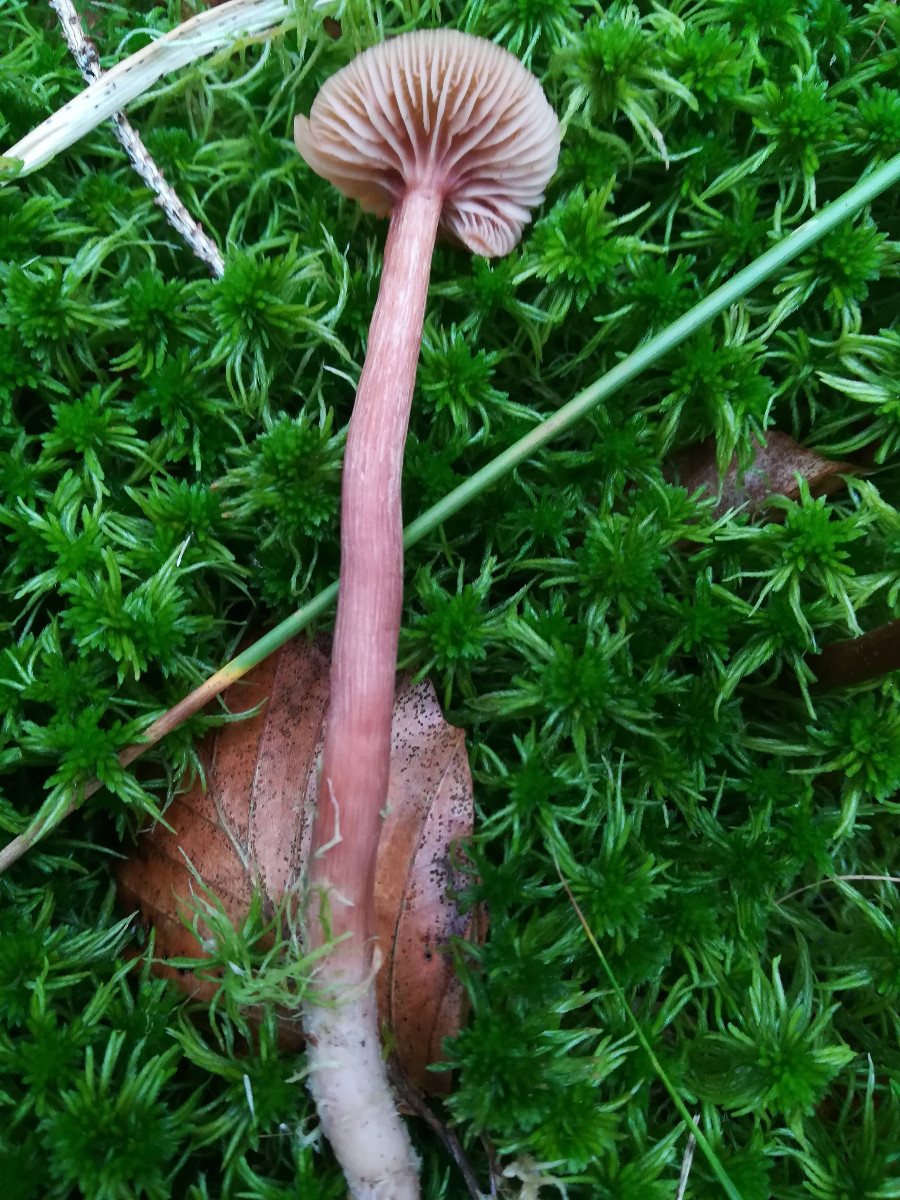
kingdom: Fungi
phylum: Basidiomycota
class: Agaricomycetes
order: Agaricales
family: Hydnangiaceae
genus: Laccaria
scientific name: Laccaria laccata
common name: rød ametysthat
